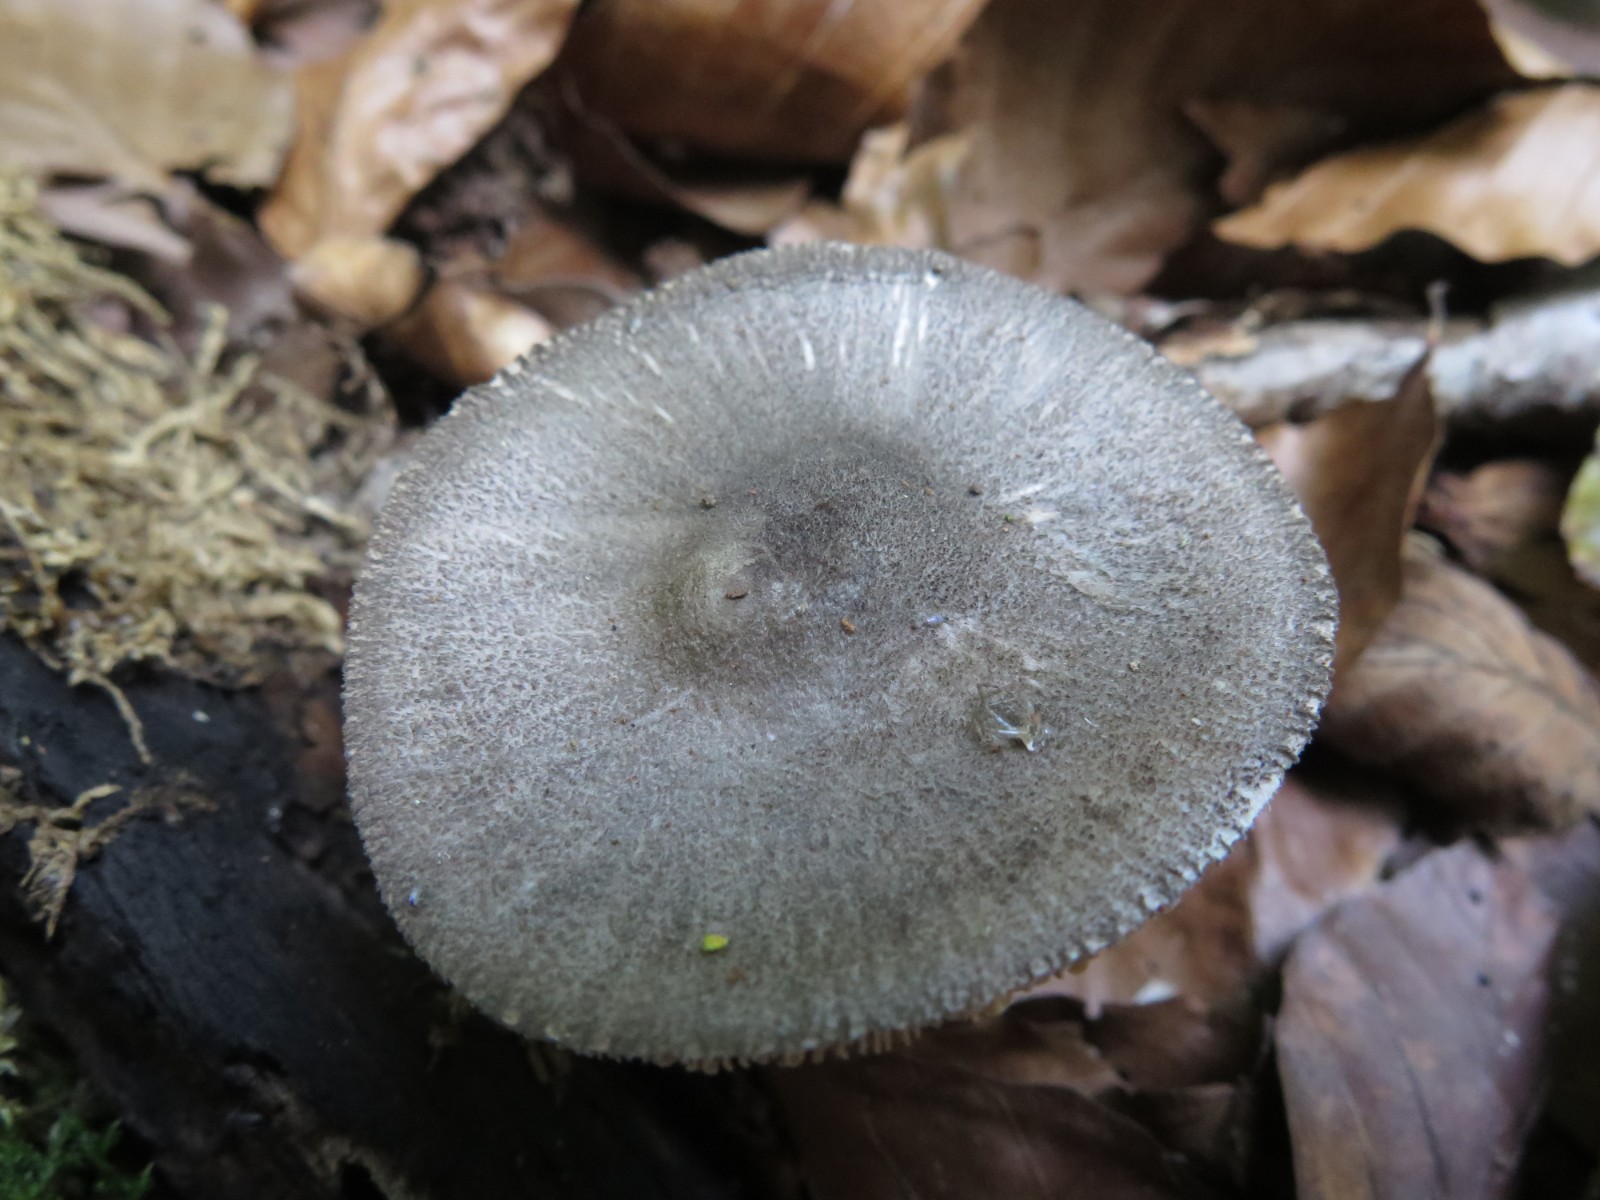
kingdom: Fungi
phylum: Basidiomycota
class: Agaricomycetes
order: Agaricales
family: Pluteaceae
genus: Pluteus
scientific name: Pluteus salicinus
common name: stiv skærmhat
